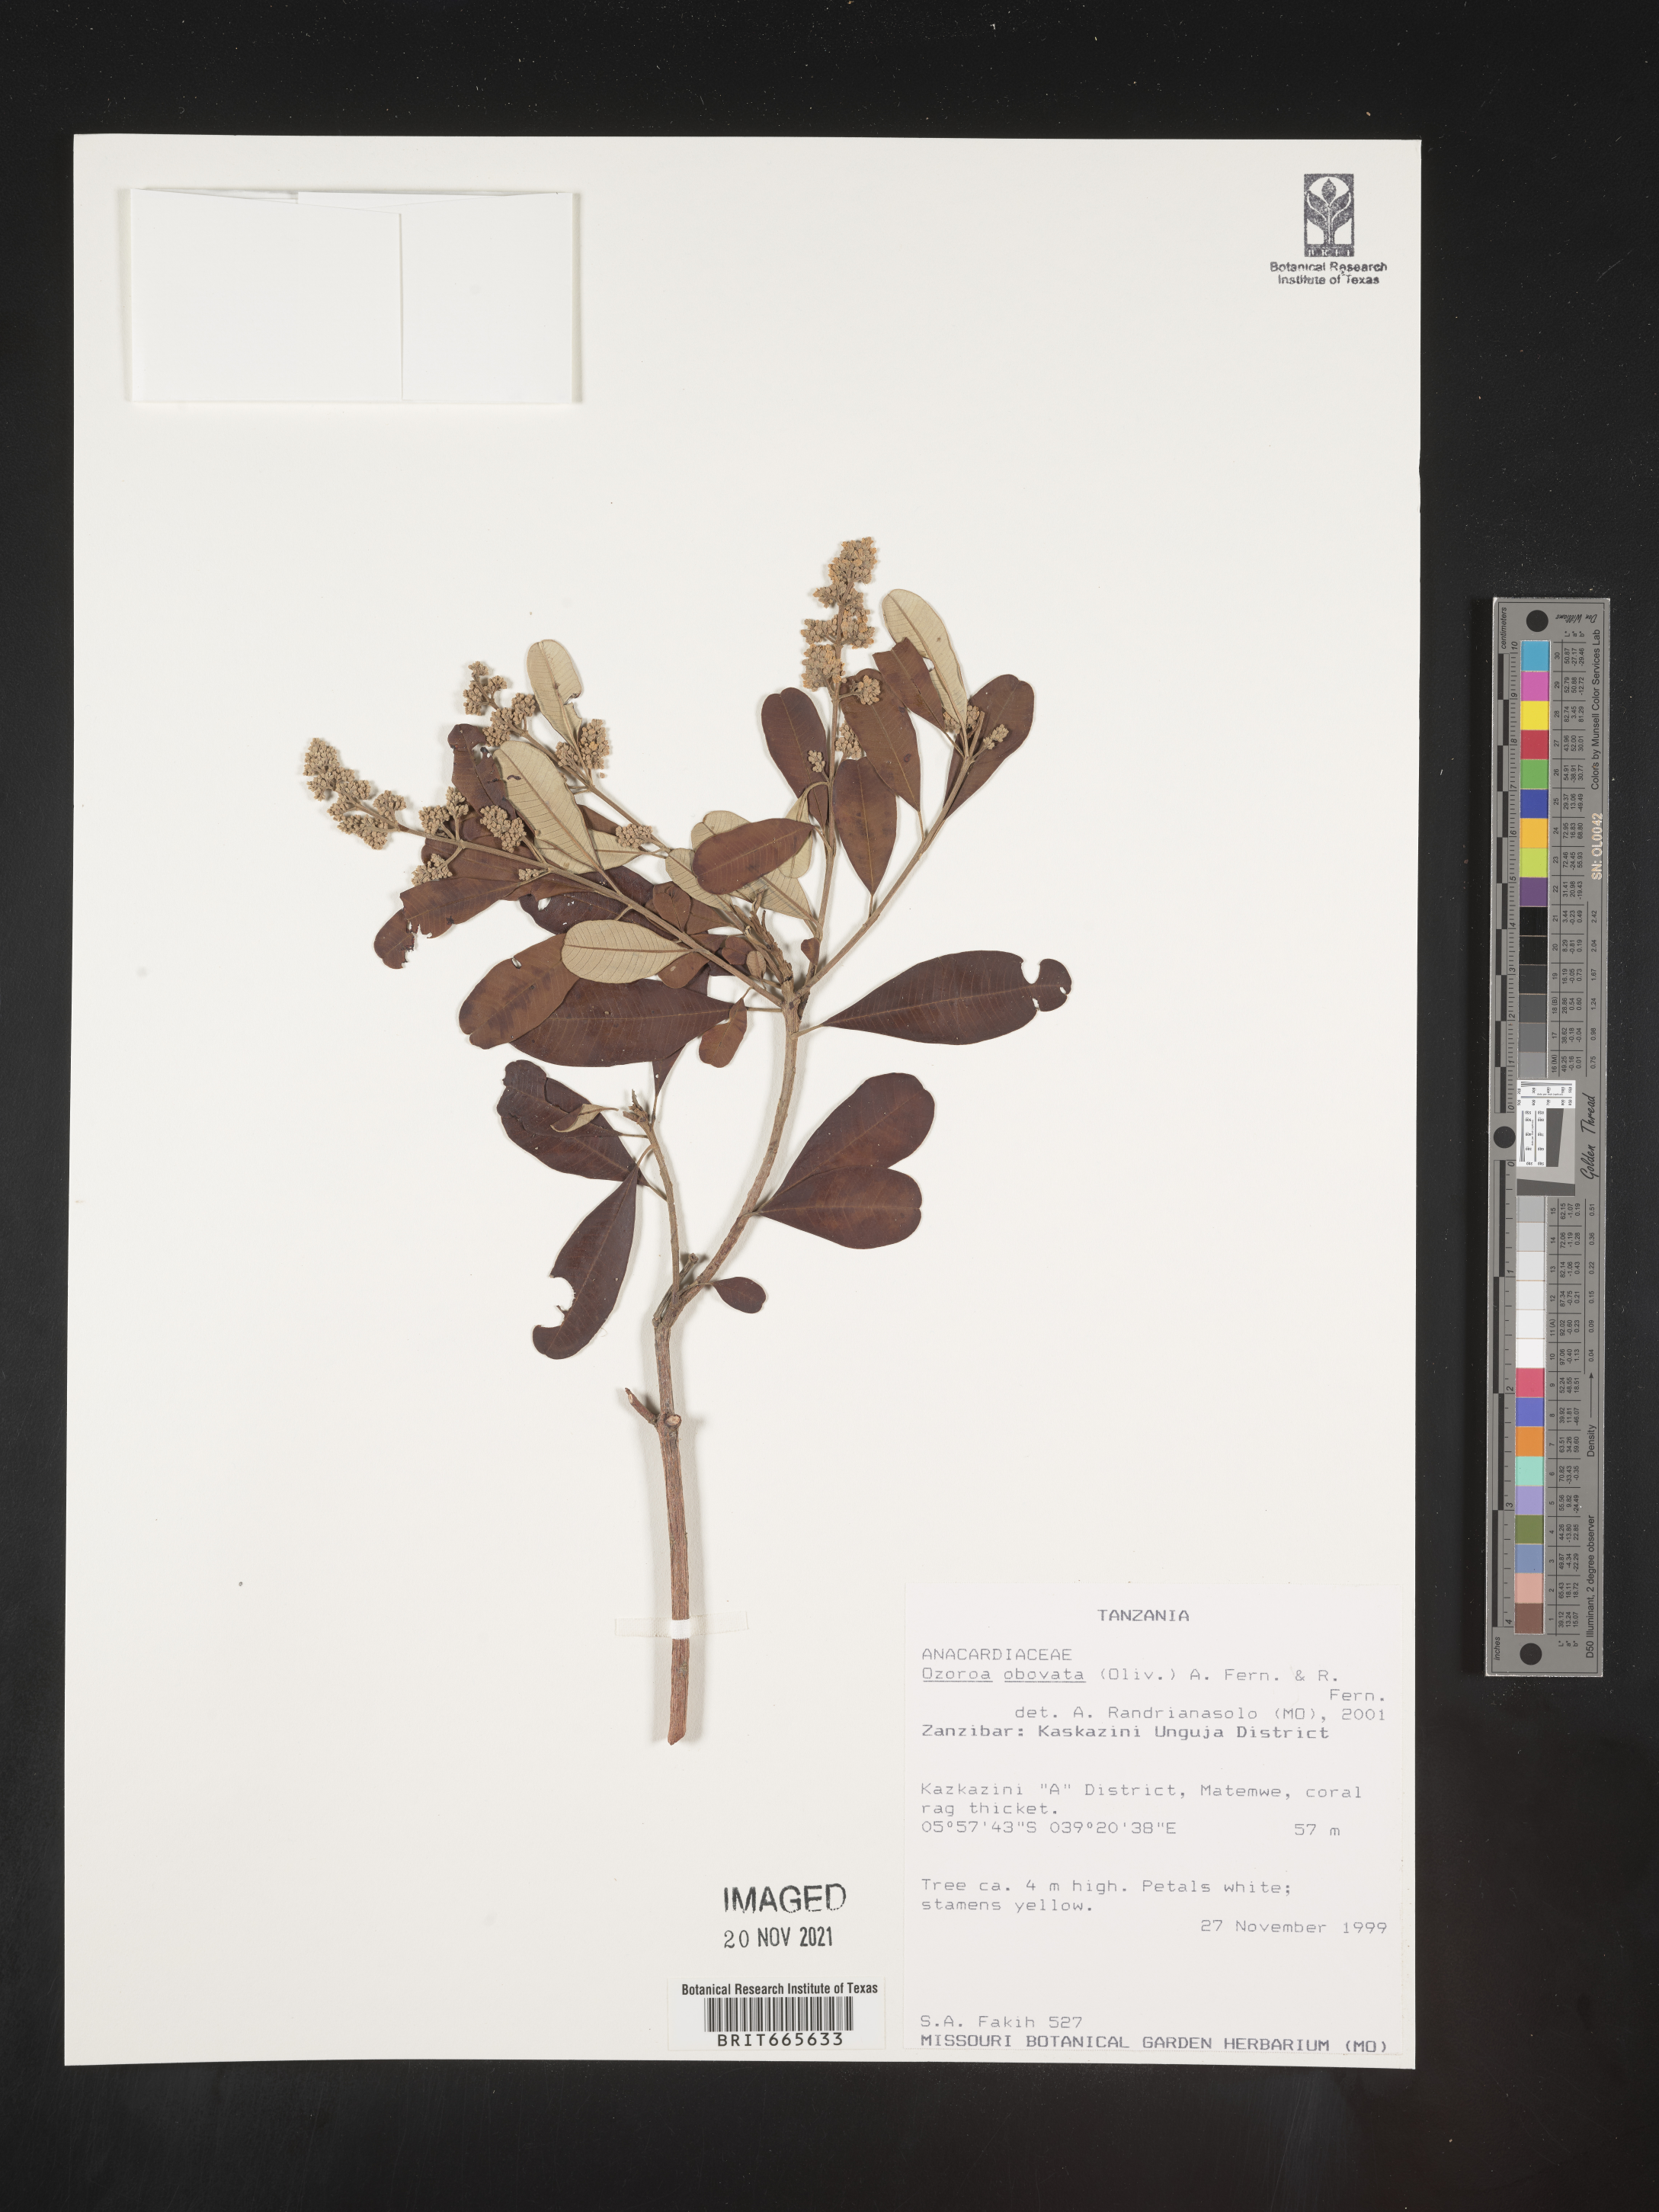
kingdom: Plantae
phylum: Tracheophyta
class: Magnoliopsida
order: Sapindales
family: Anacardiaceae
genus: Ozoroa
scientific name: Ozoroa
